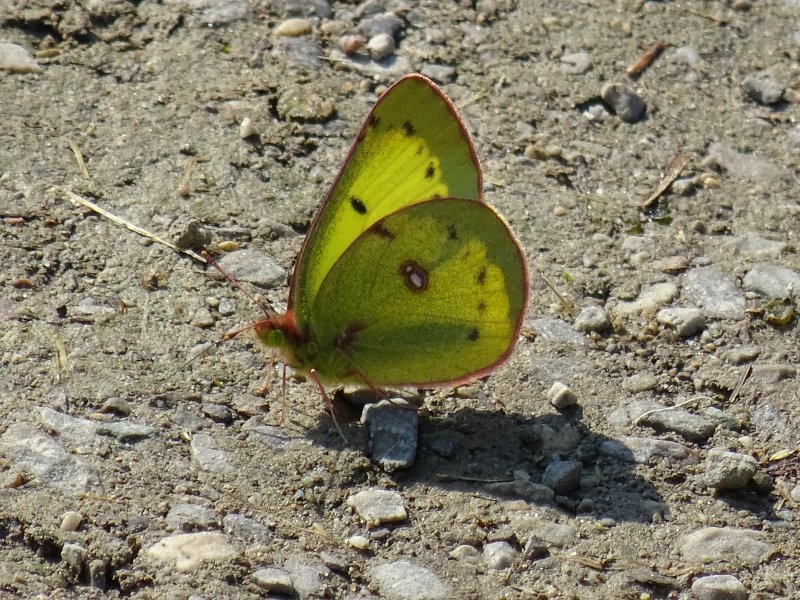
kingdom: Animalia
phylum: Arthropoda
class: Insecta
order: Lepidoptera
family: Pieridae
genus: Colias
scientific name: Colias philodice
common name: Clouded Sulphur
